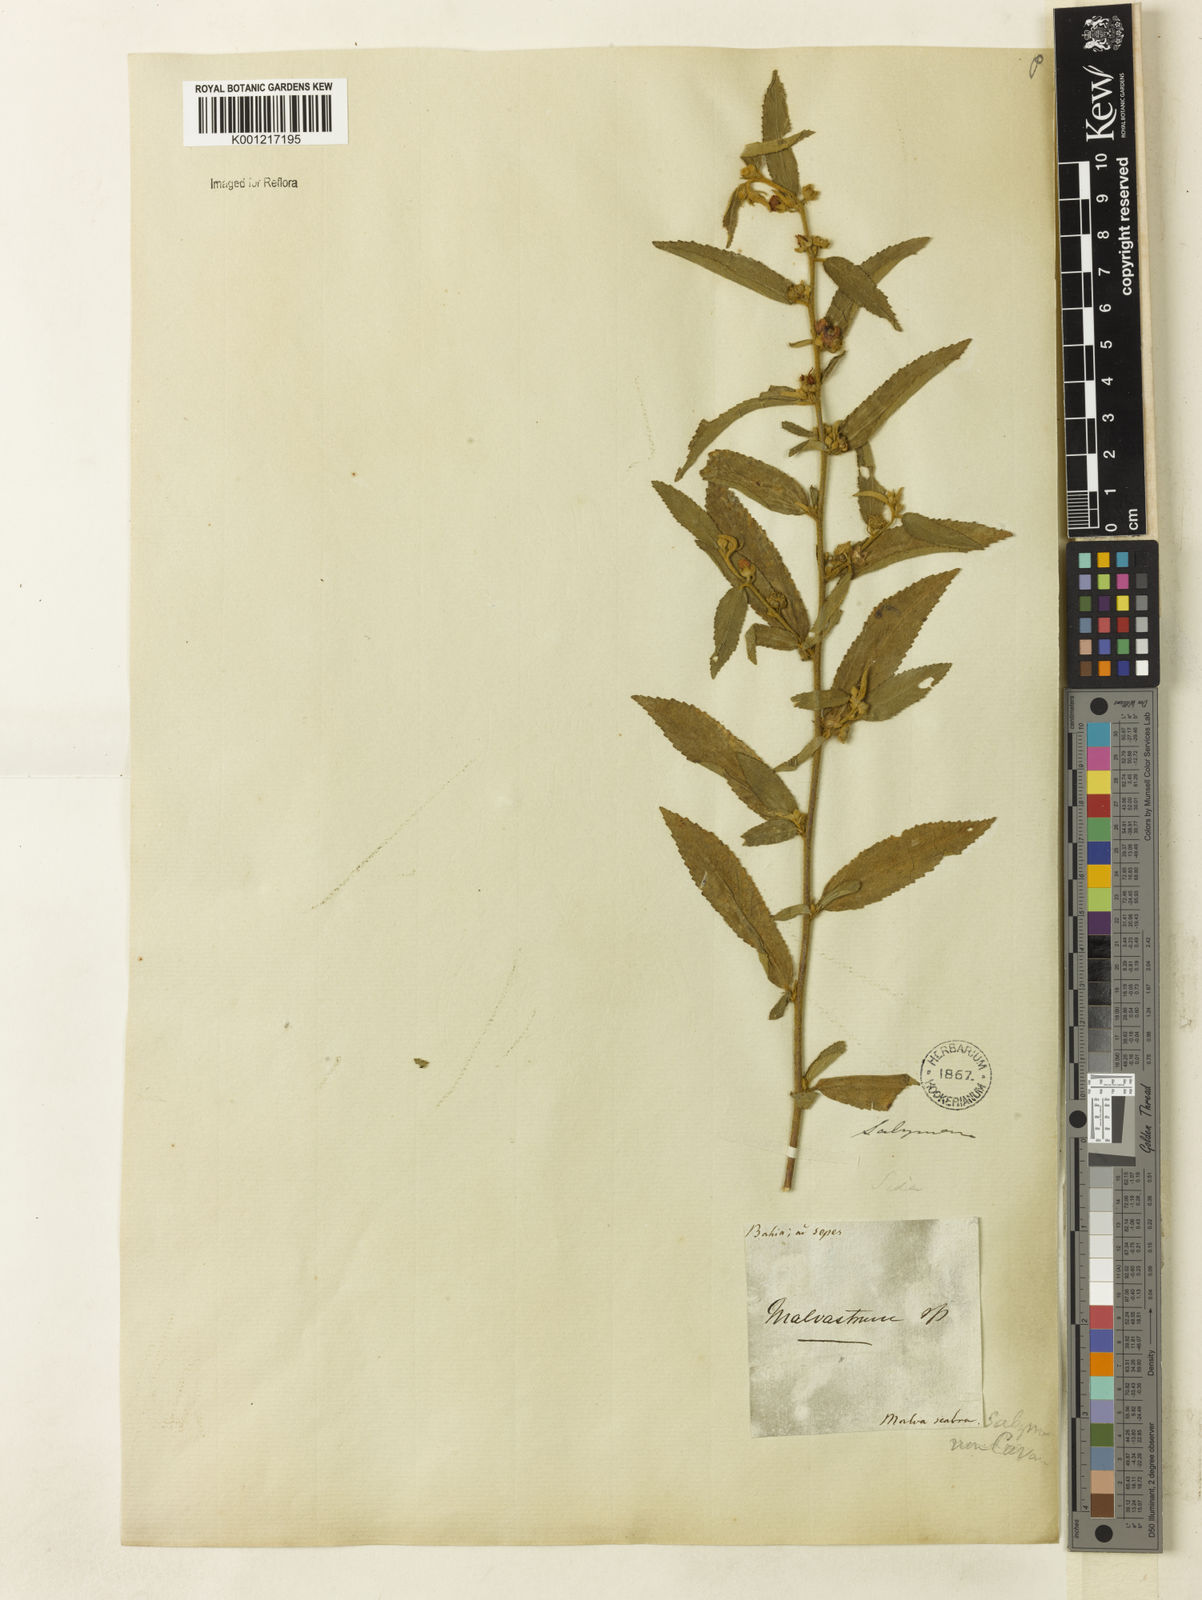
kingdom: Plantae
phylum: Tracheophyta
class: Magnoliopsida
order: Malvales
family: Malvaceae
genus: Sidastrum
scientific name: Sidastrum multiflorum
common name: Manyflower sandmallow
